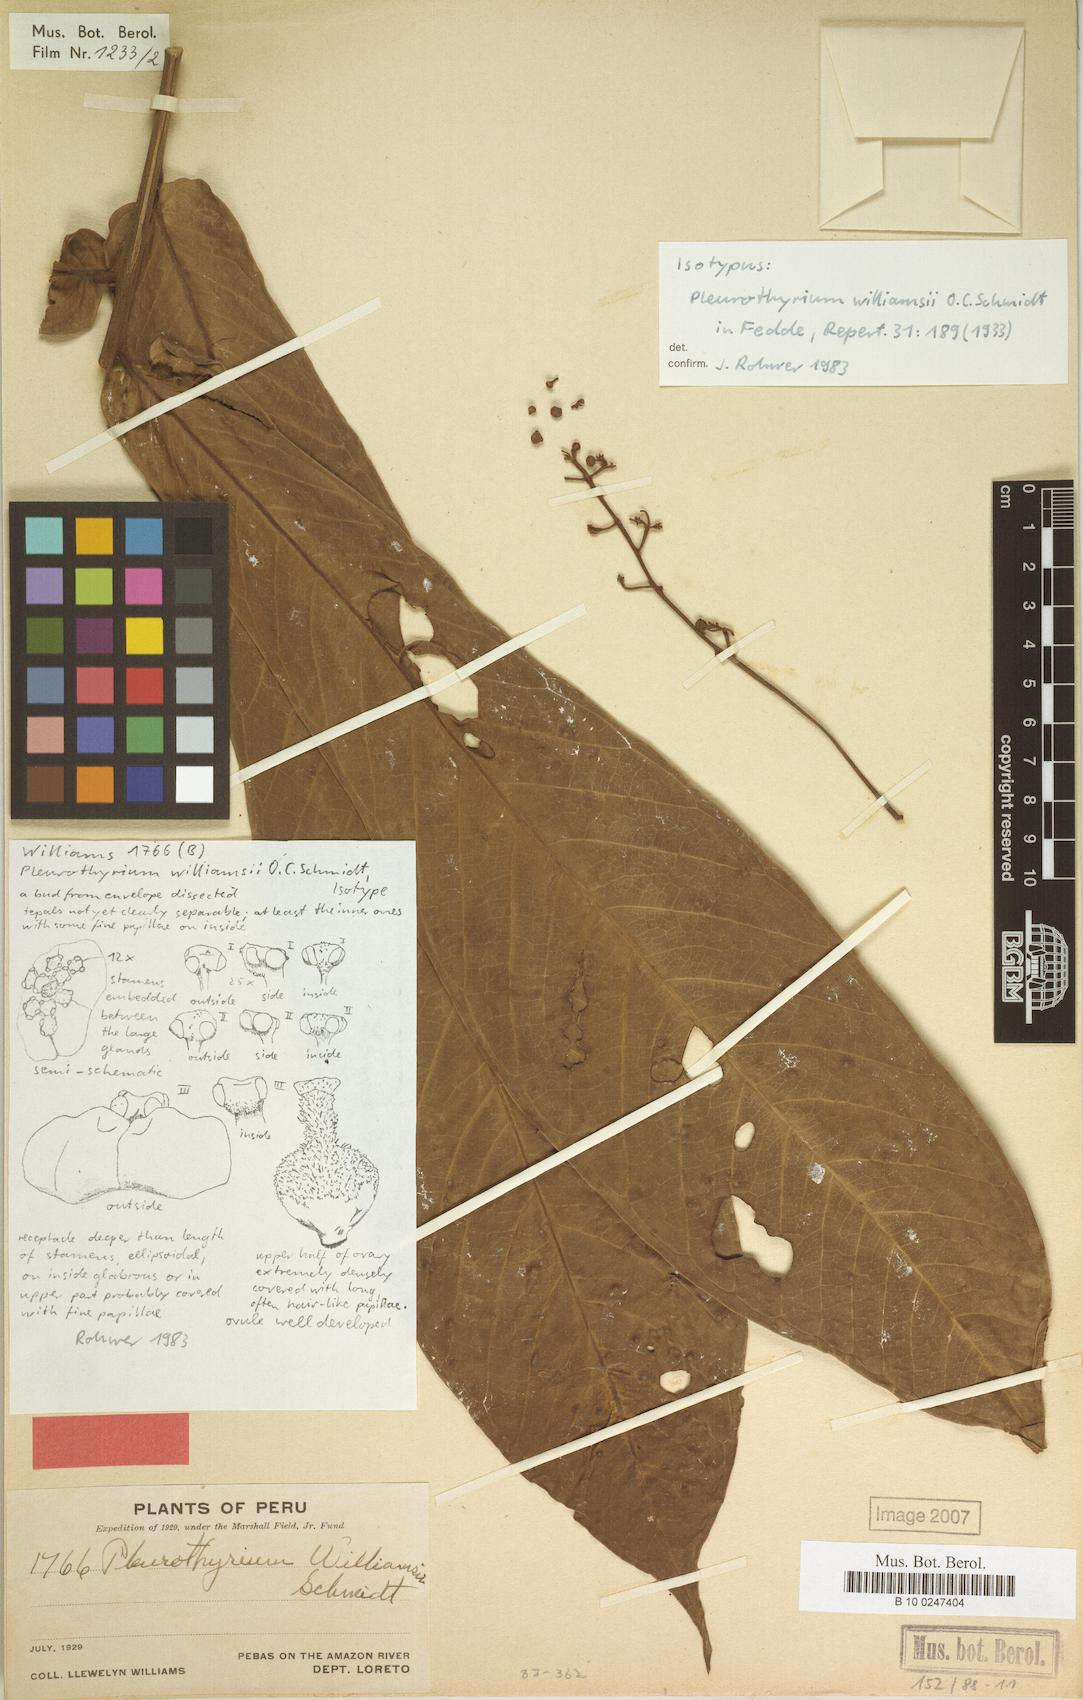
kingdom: Plantae
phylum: Tracheophyta
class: Magnoliopsida
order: Laurales
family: Lauraceae
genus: Pleurothyrium
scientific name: Pleurothyrium williamsii
